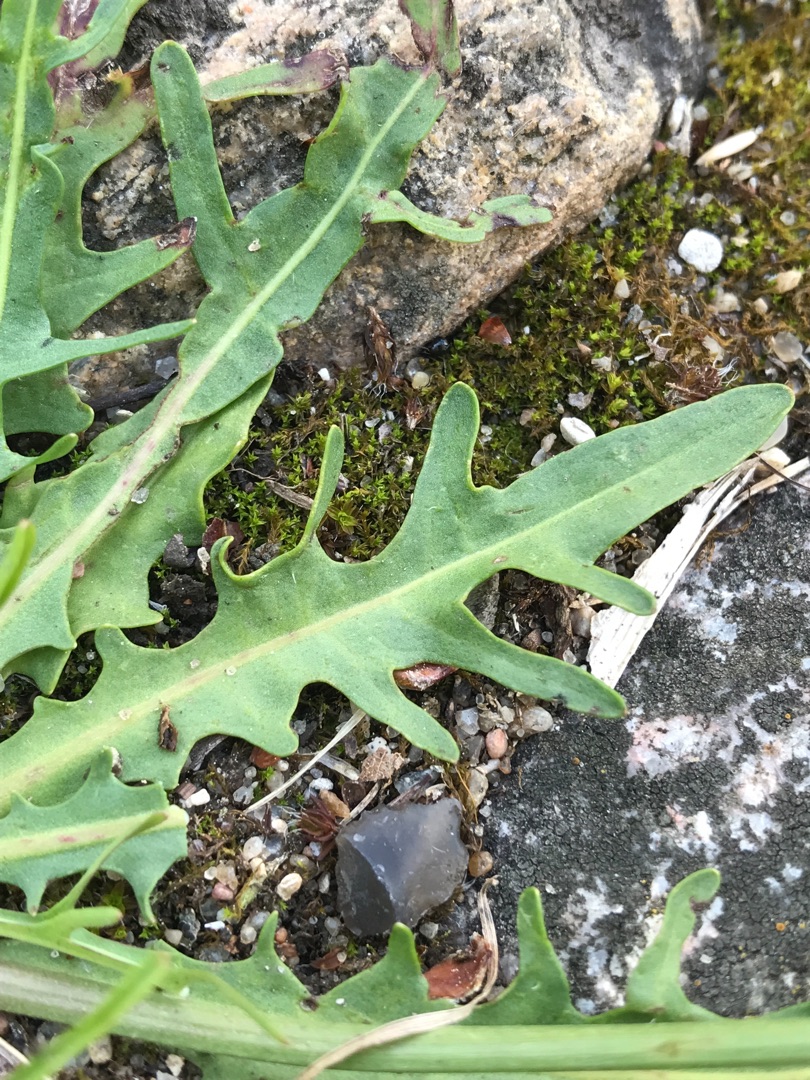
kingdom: Plantae
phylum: Tracheophyta
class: Magnoliopsida
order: Asterales
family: Asteraceae
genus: Scorzoneroides
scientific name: Scorzoneroides autumnalis
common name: Høst-borst
